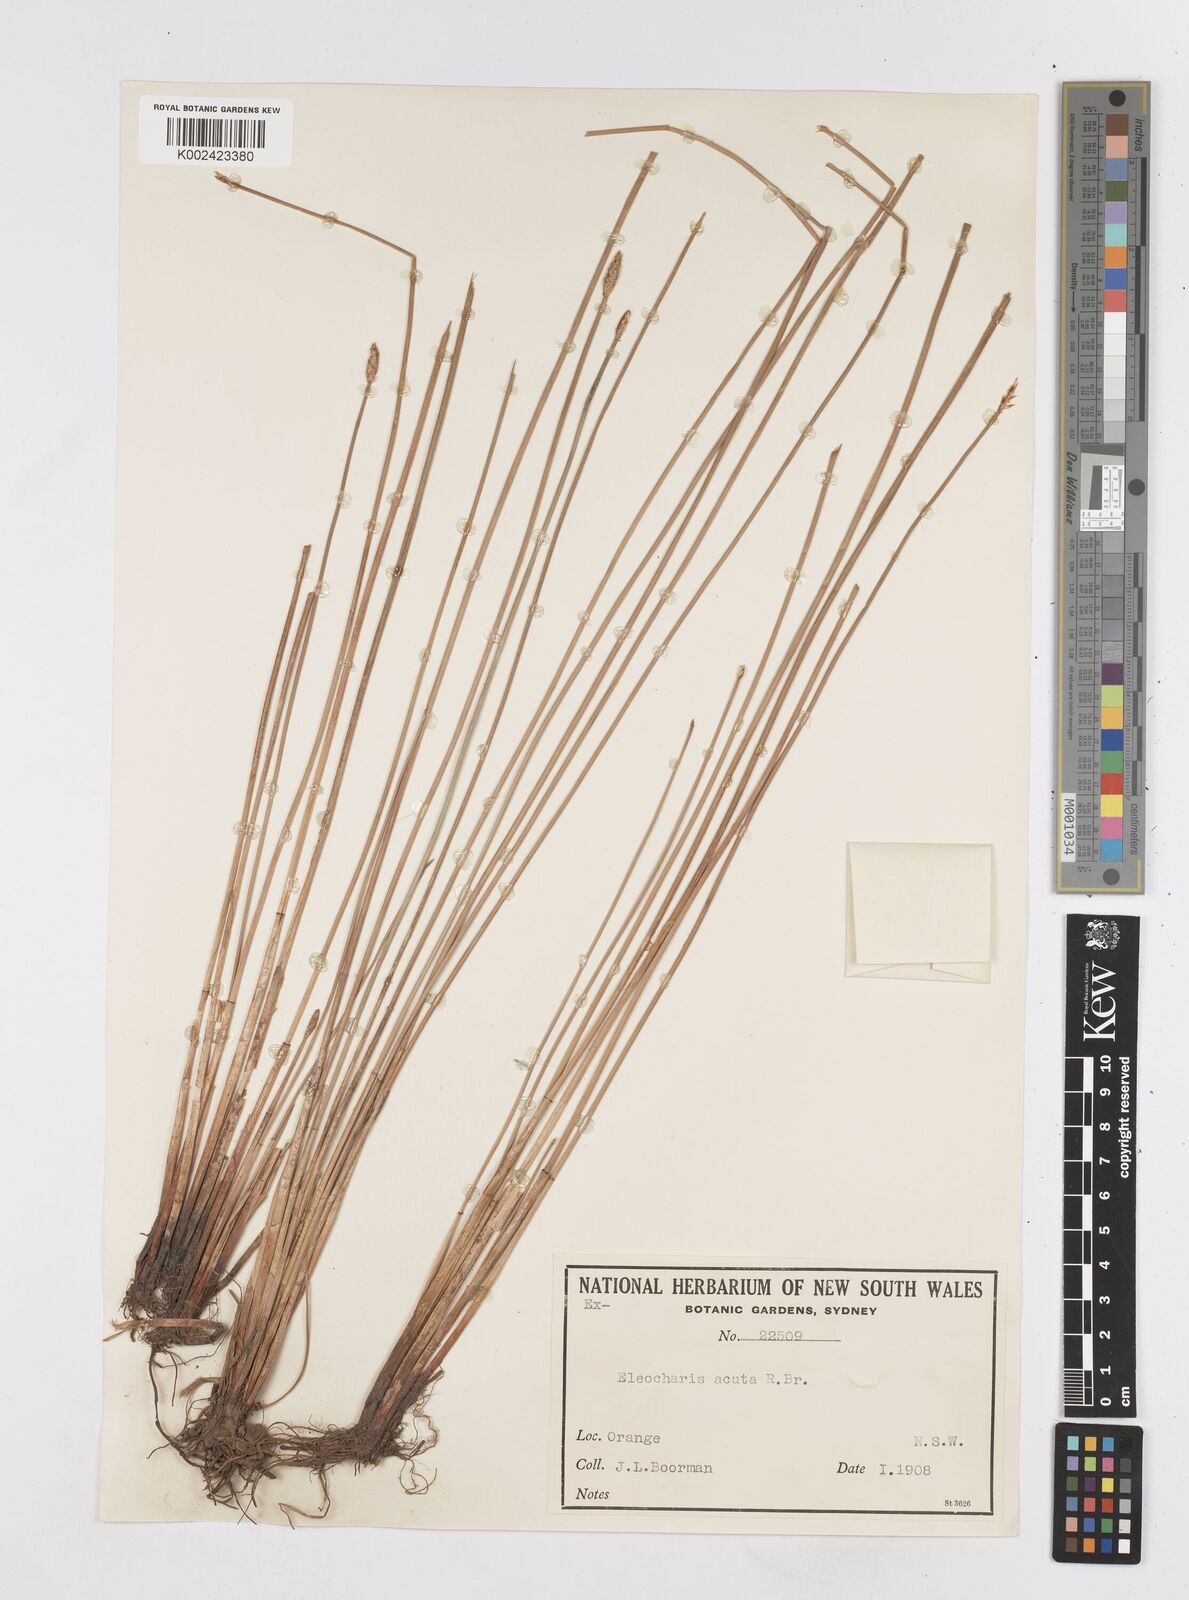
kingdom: Plantae
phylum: Tracheophyta
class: Liliopsida
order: Poales
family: Cyperaceae
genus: Eleocharis
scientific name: Eleocharis acuta
